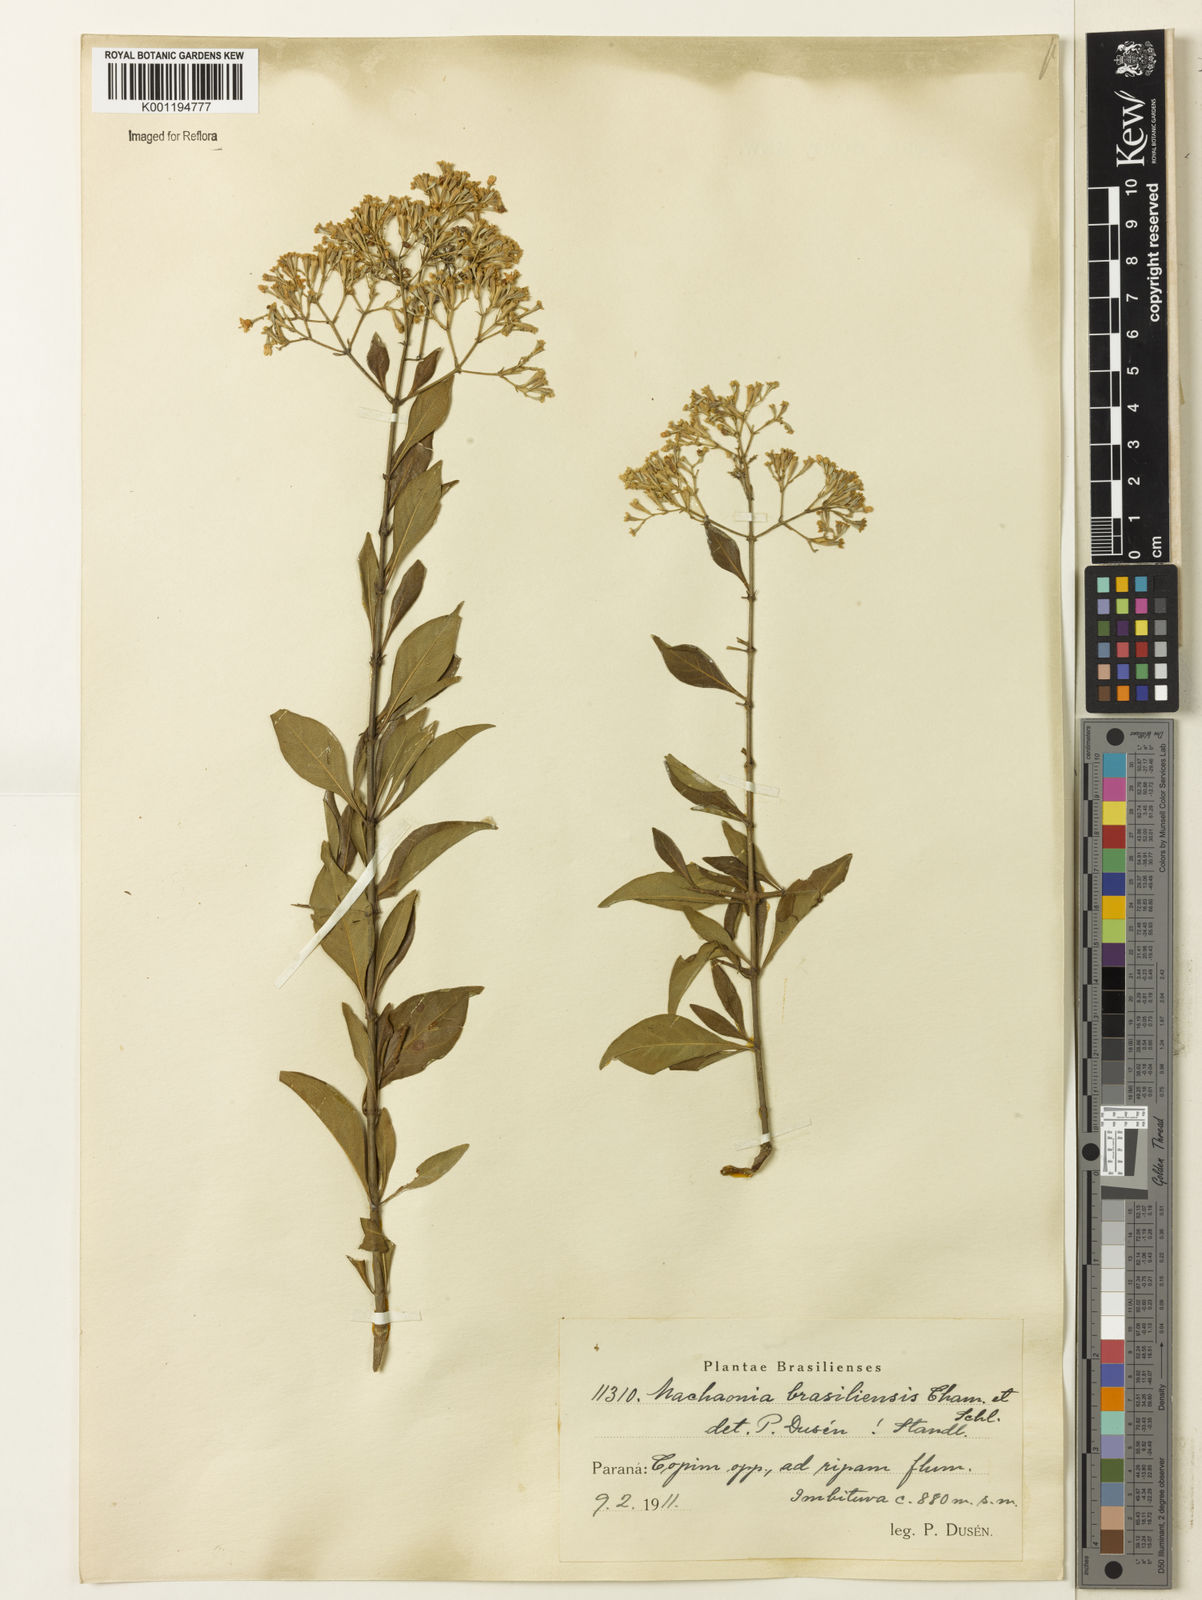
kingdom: Plantae
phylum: Tracheophyta
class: Magnoliopsida
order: Gentianales
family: Rubiaceae
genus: Machaonia
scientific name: Machaonia brasiliensis
